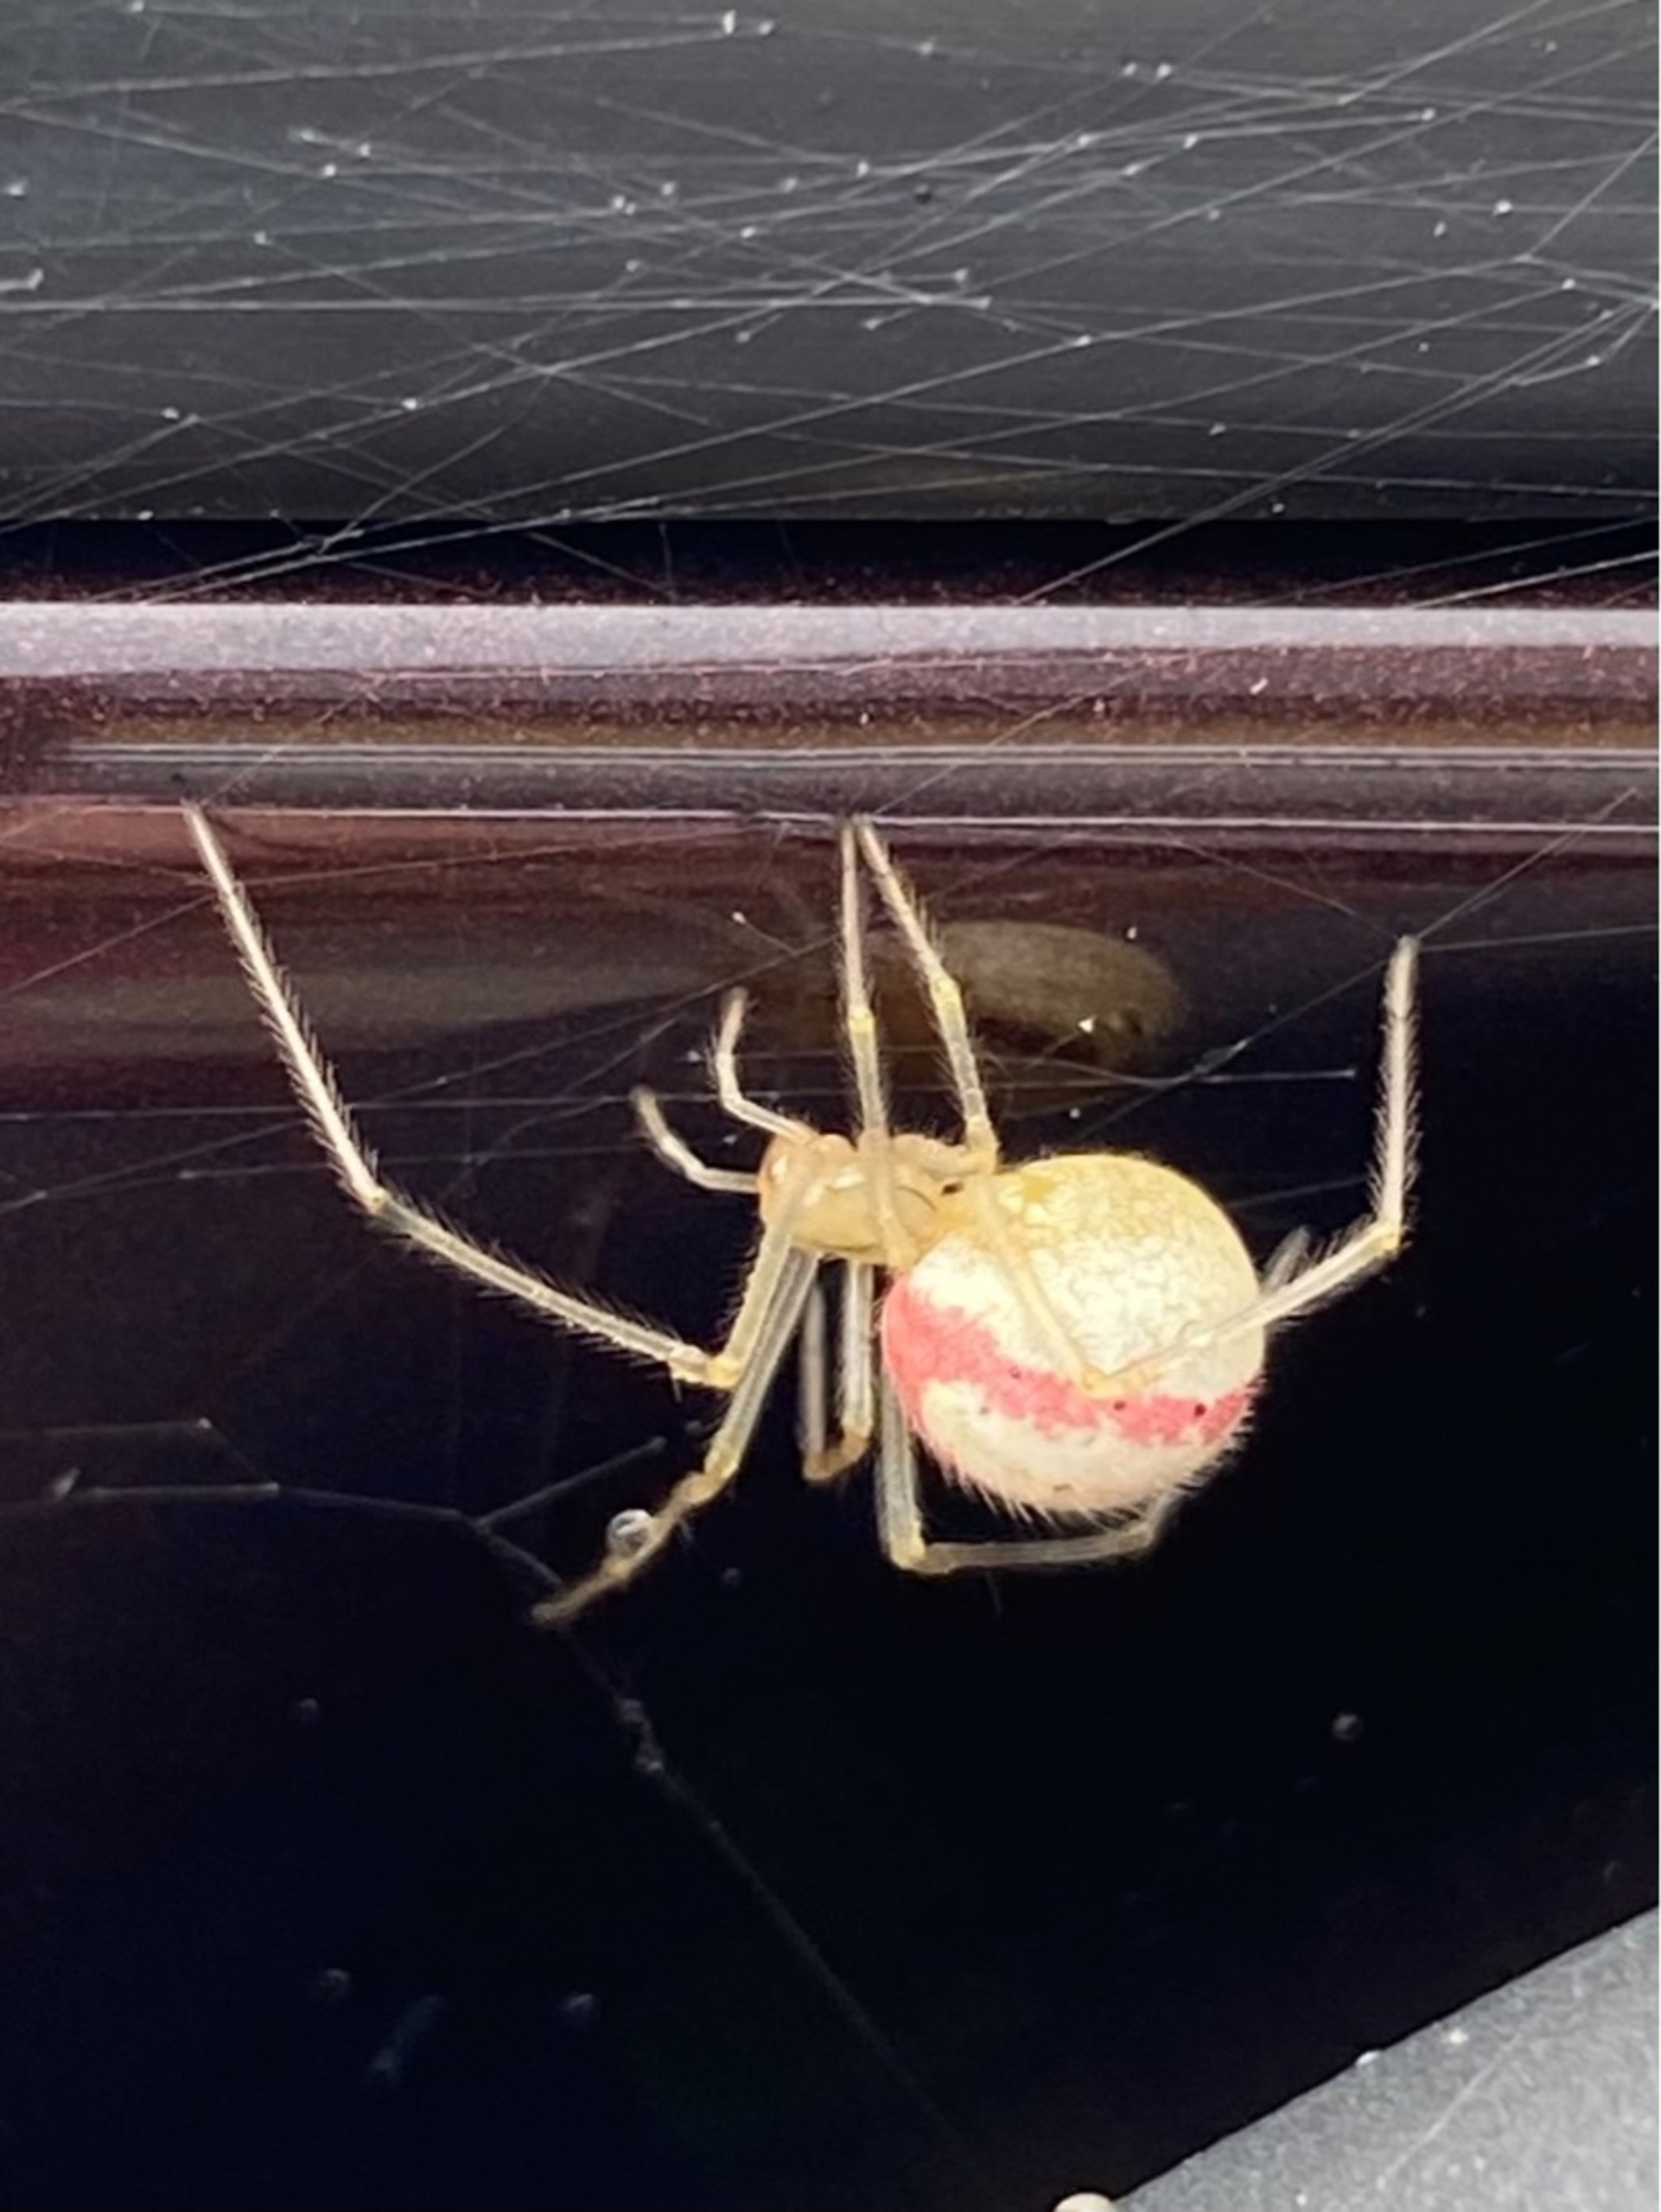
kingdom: Animalia
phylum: Arthropoda
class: Arachnida
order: Araneae
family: Theridiidae
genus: Enoplognatha
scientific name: Enoplognatha ovata
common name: Perleedderkop
